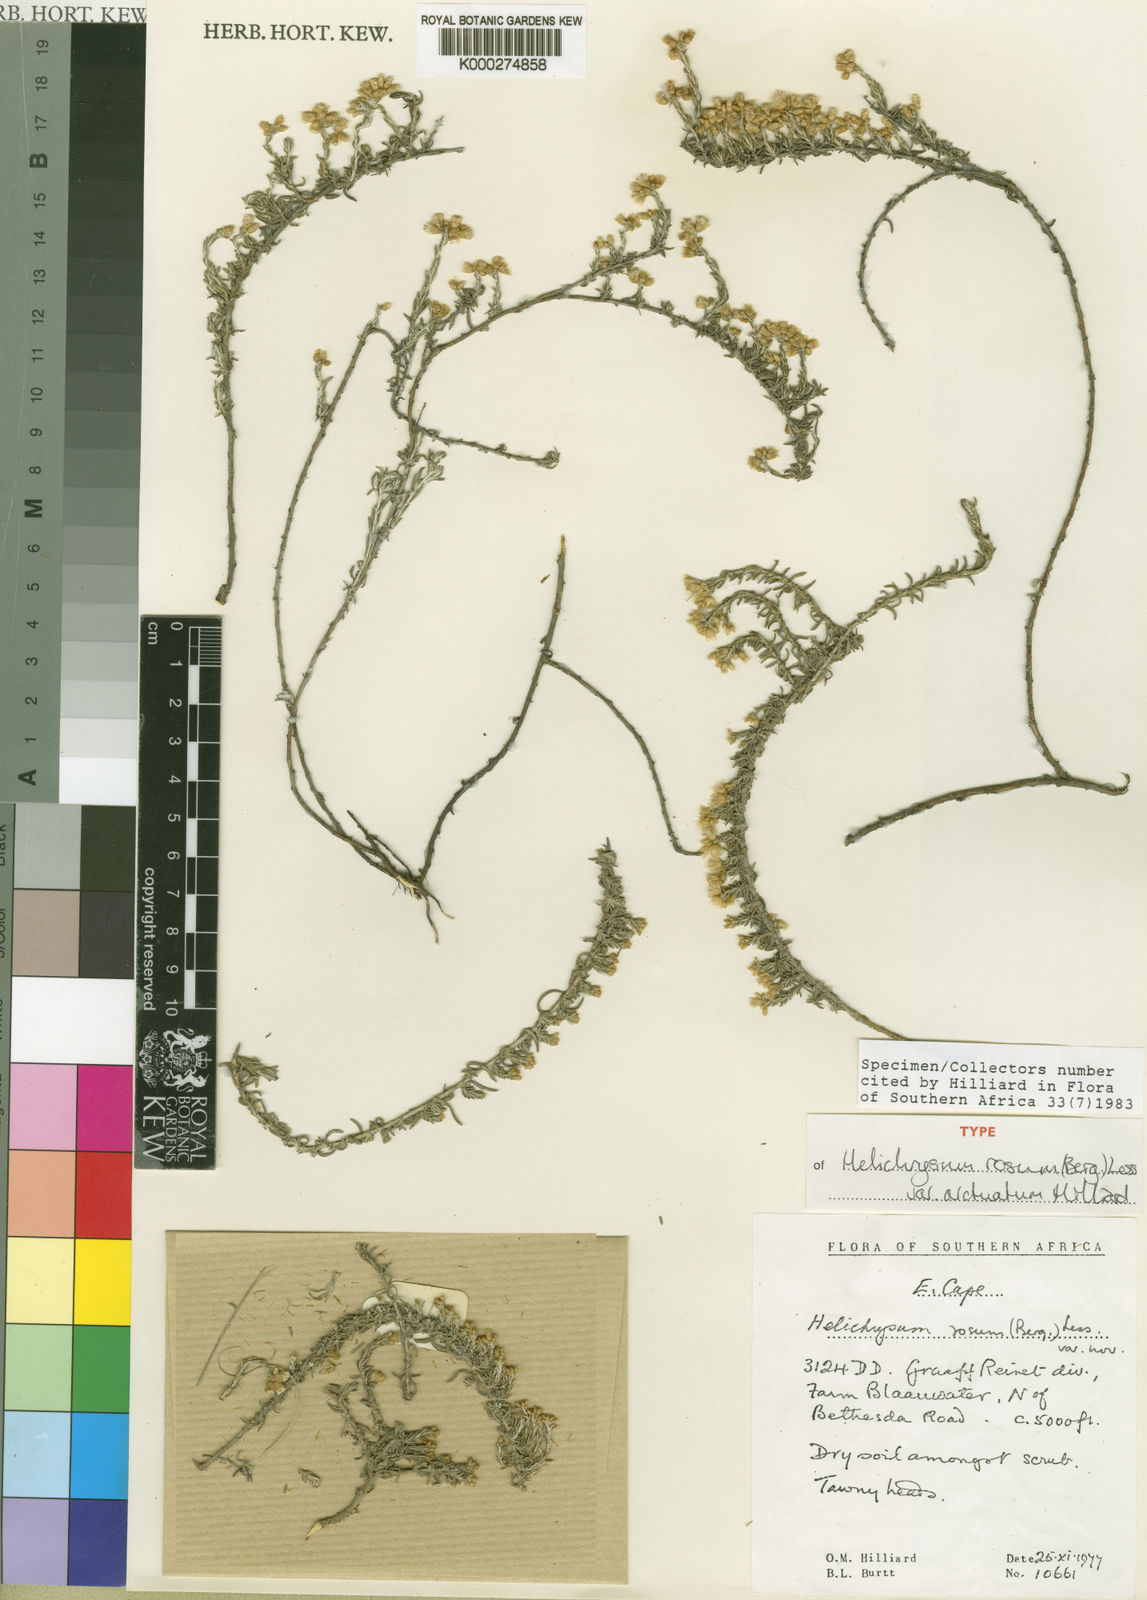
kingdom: Plantae
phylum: Tracheophyta
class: Magnoliopsida
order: Asterales
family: Asteraceae
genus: Helichrysum
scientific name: Helichrysum rosum
